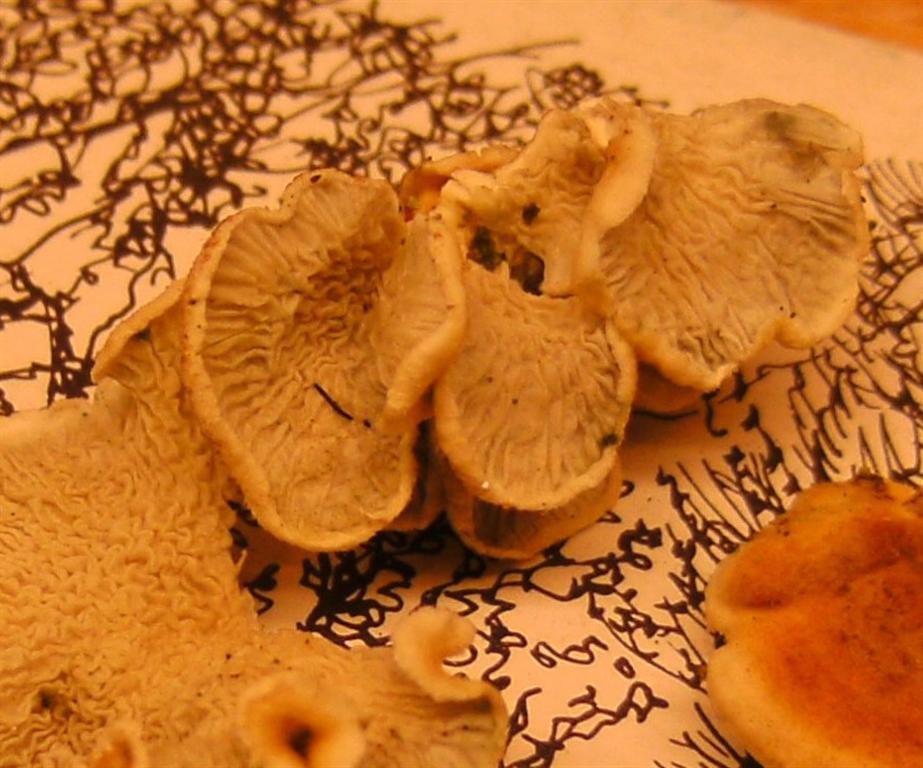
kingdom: Fungi
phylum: Basidiomycota
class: Agaricomycetes
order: Amylocorticiales
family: Amylocorticiaceae
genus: Plicaturopsis
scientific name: Plicaturopsis crispa
